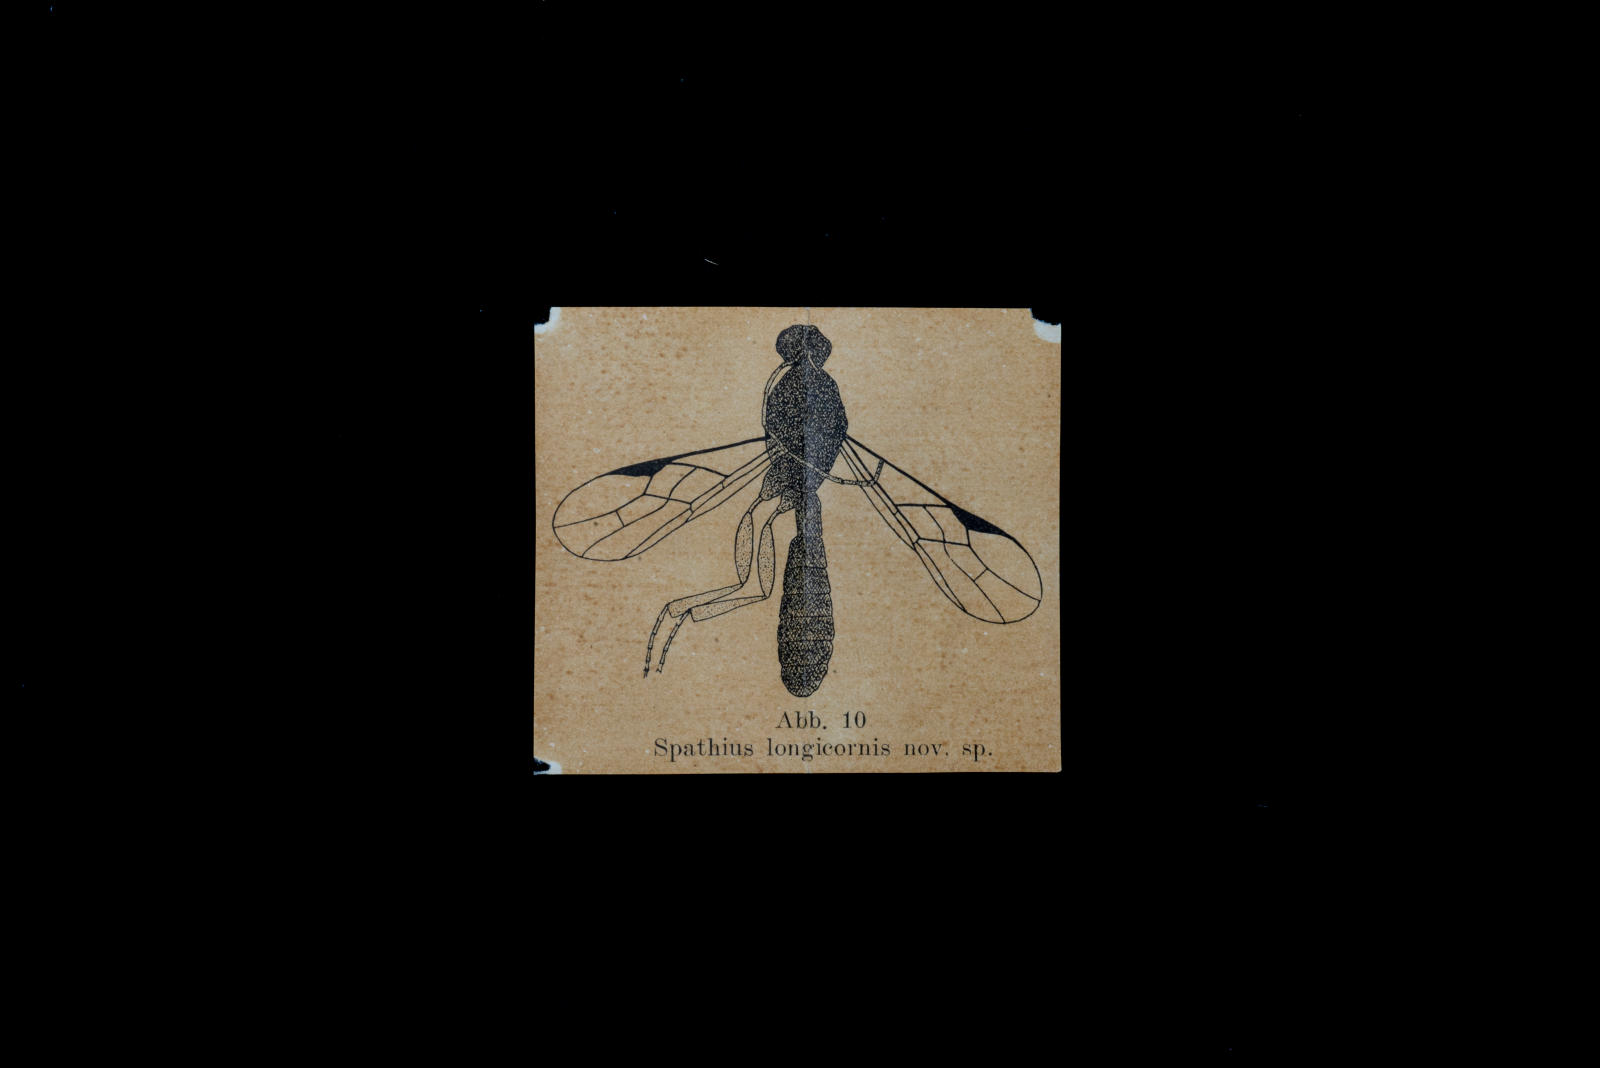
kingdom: Animalia
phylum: Arthropoda
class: Insecta
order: Hymenoptera
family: Braconidae
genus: Spathius
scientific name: Spathius longicornis
